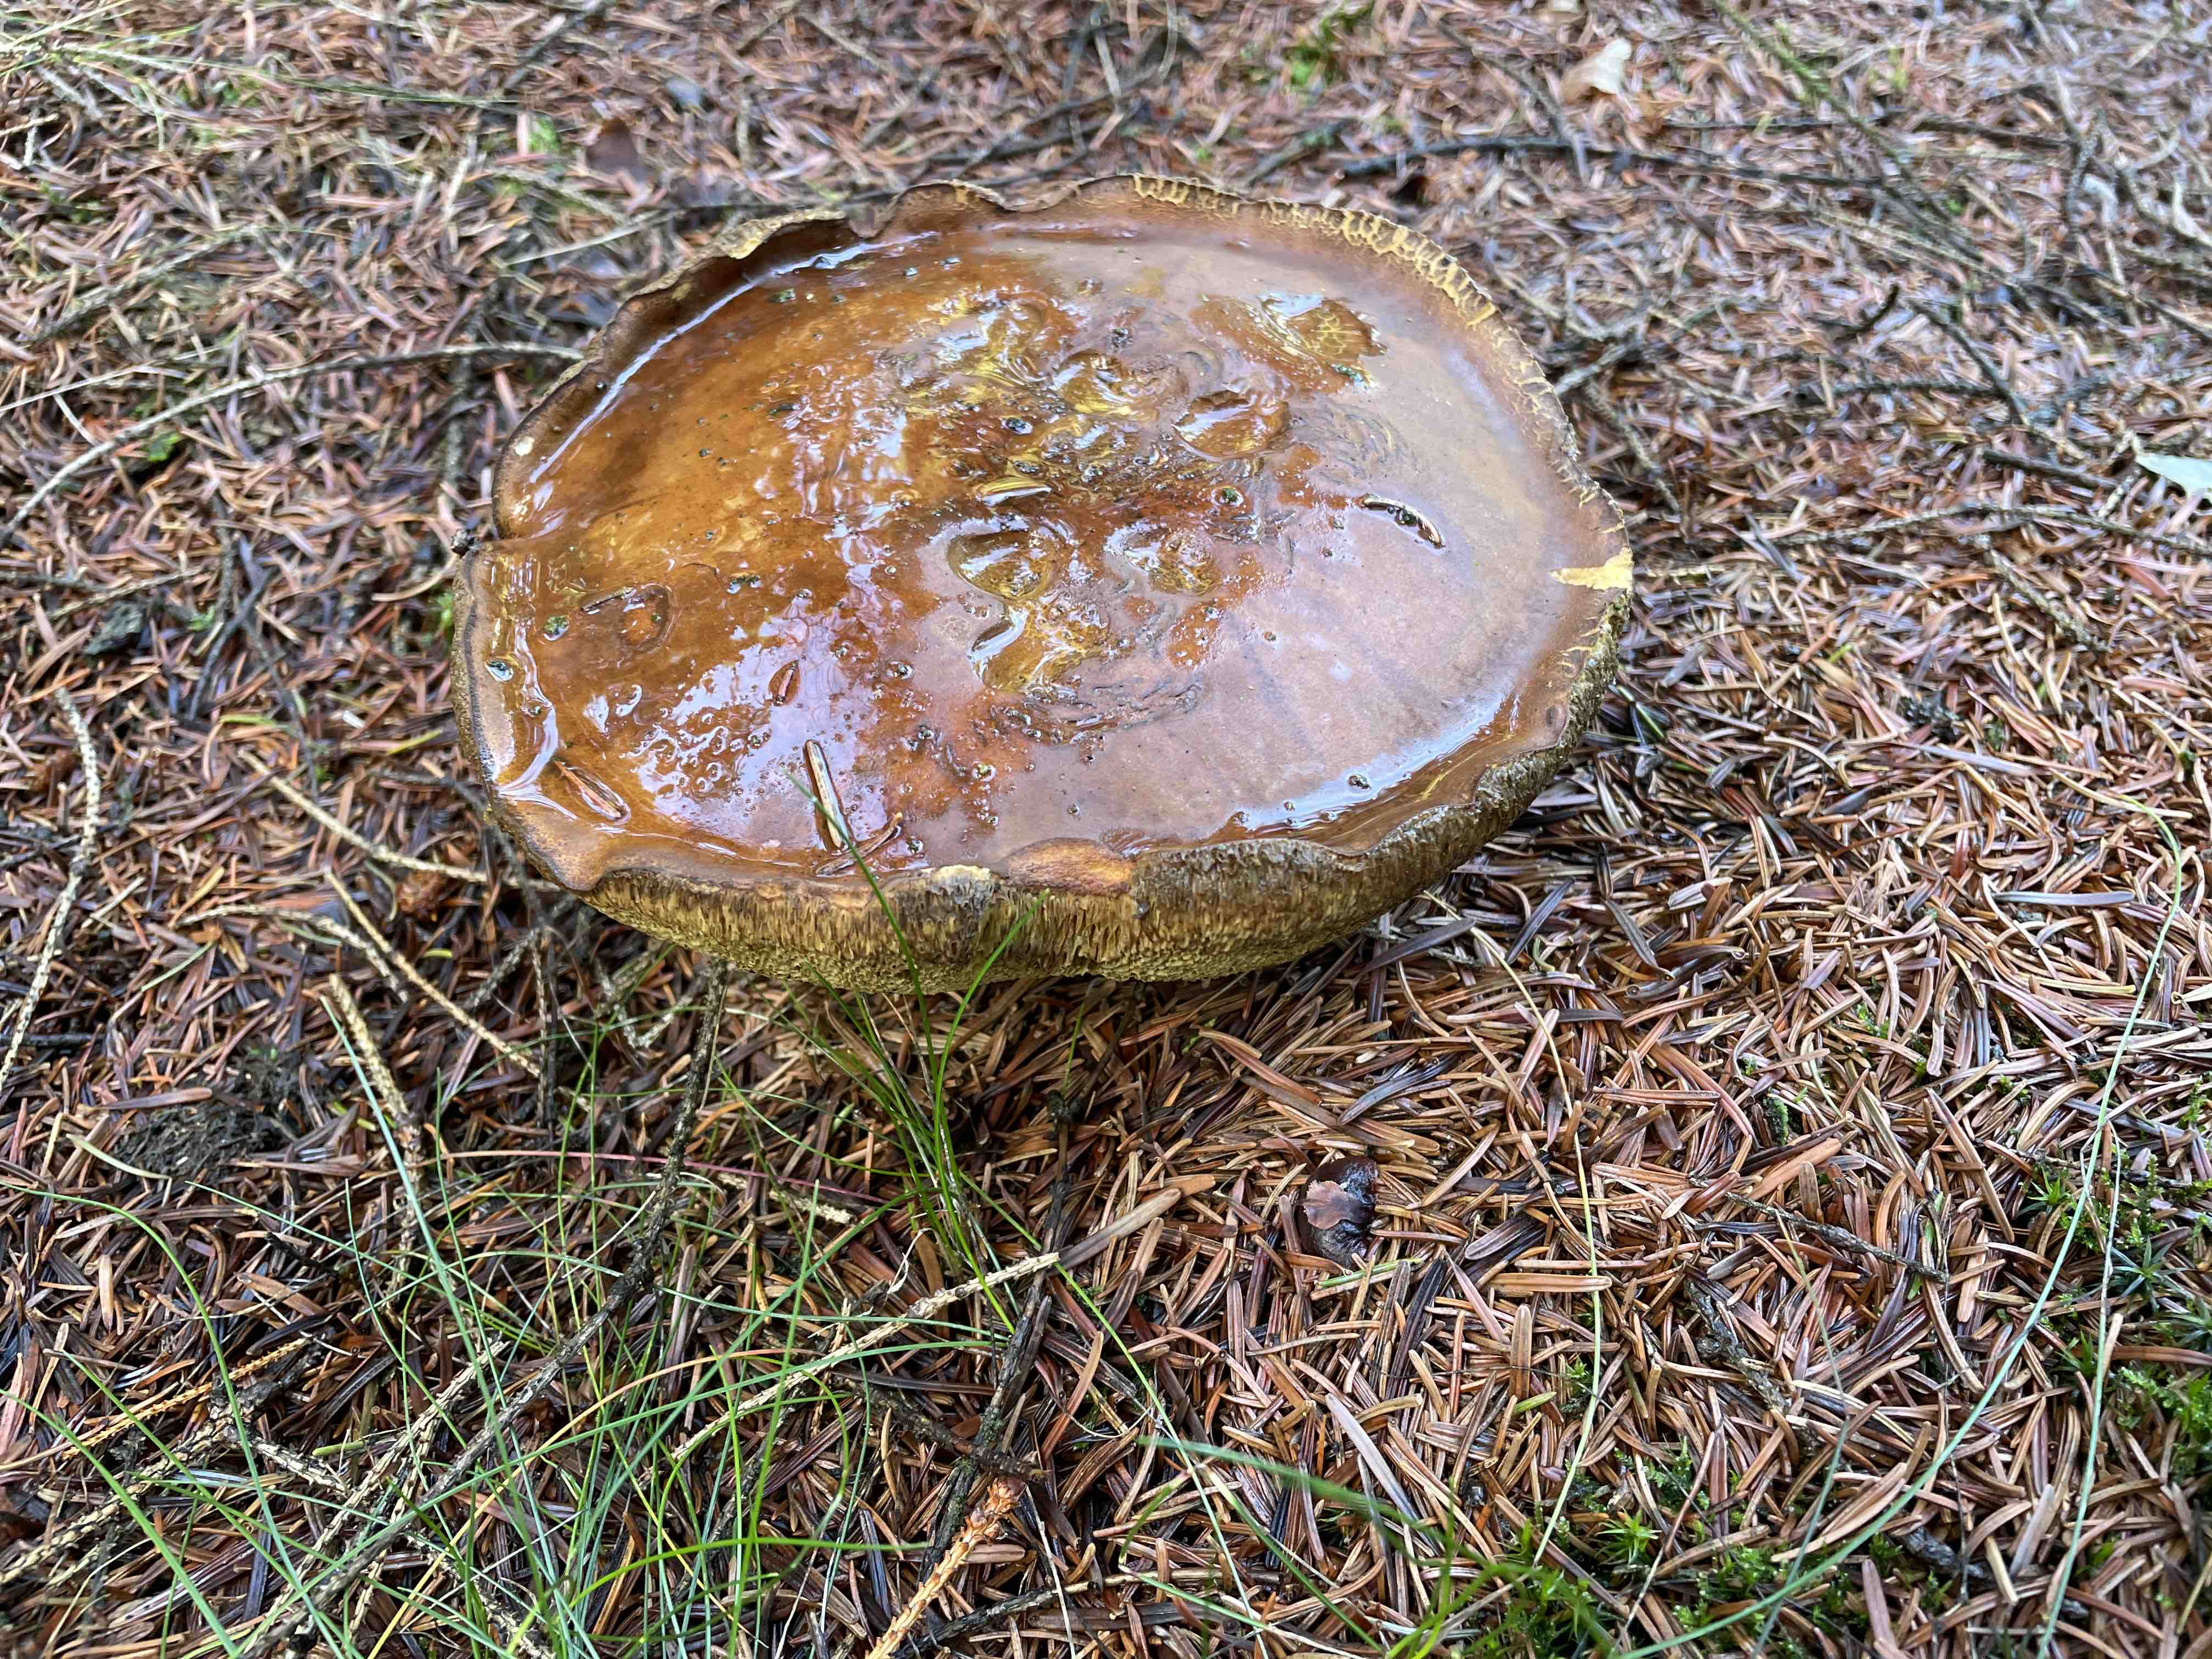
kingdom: Fungi
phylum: Basidiomycota
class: Agaricomycetes
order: Boletales
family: Boletaceae
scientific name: Boletaceae
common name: rørhatfamilien
